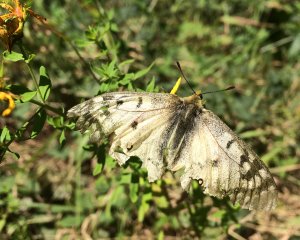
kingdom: Animalia
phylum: Arthropoda
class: Insecta
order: Lepidoptera
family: Papilionidae
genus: Parnassius
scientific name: Parnassius clodius
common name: Clodius Parnassian
